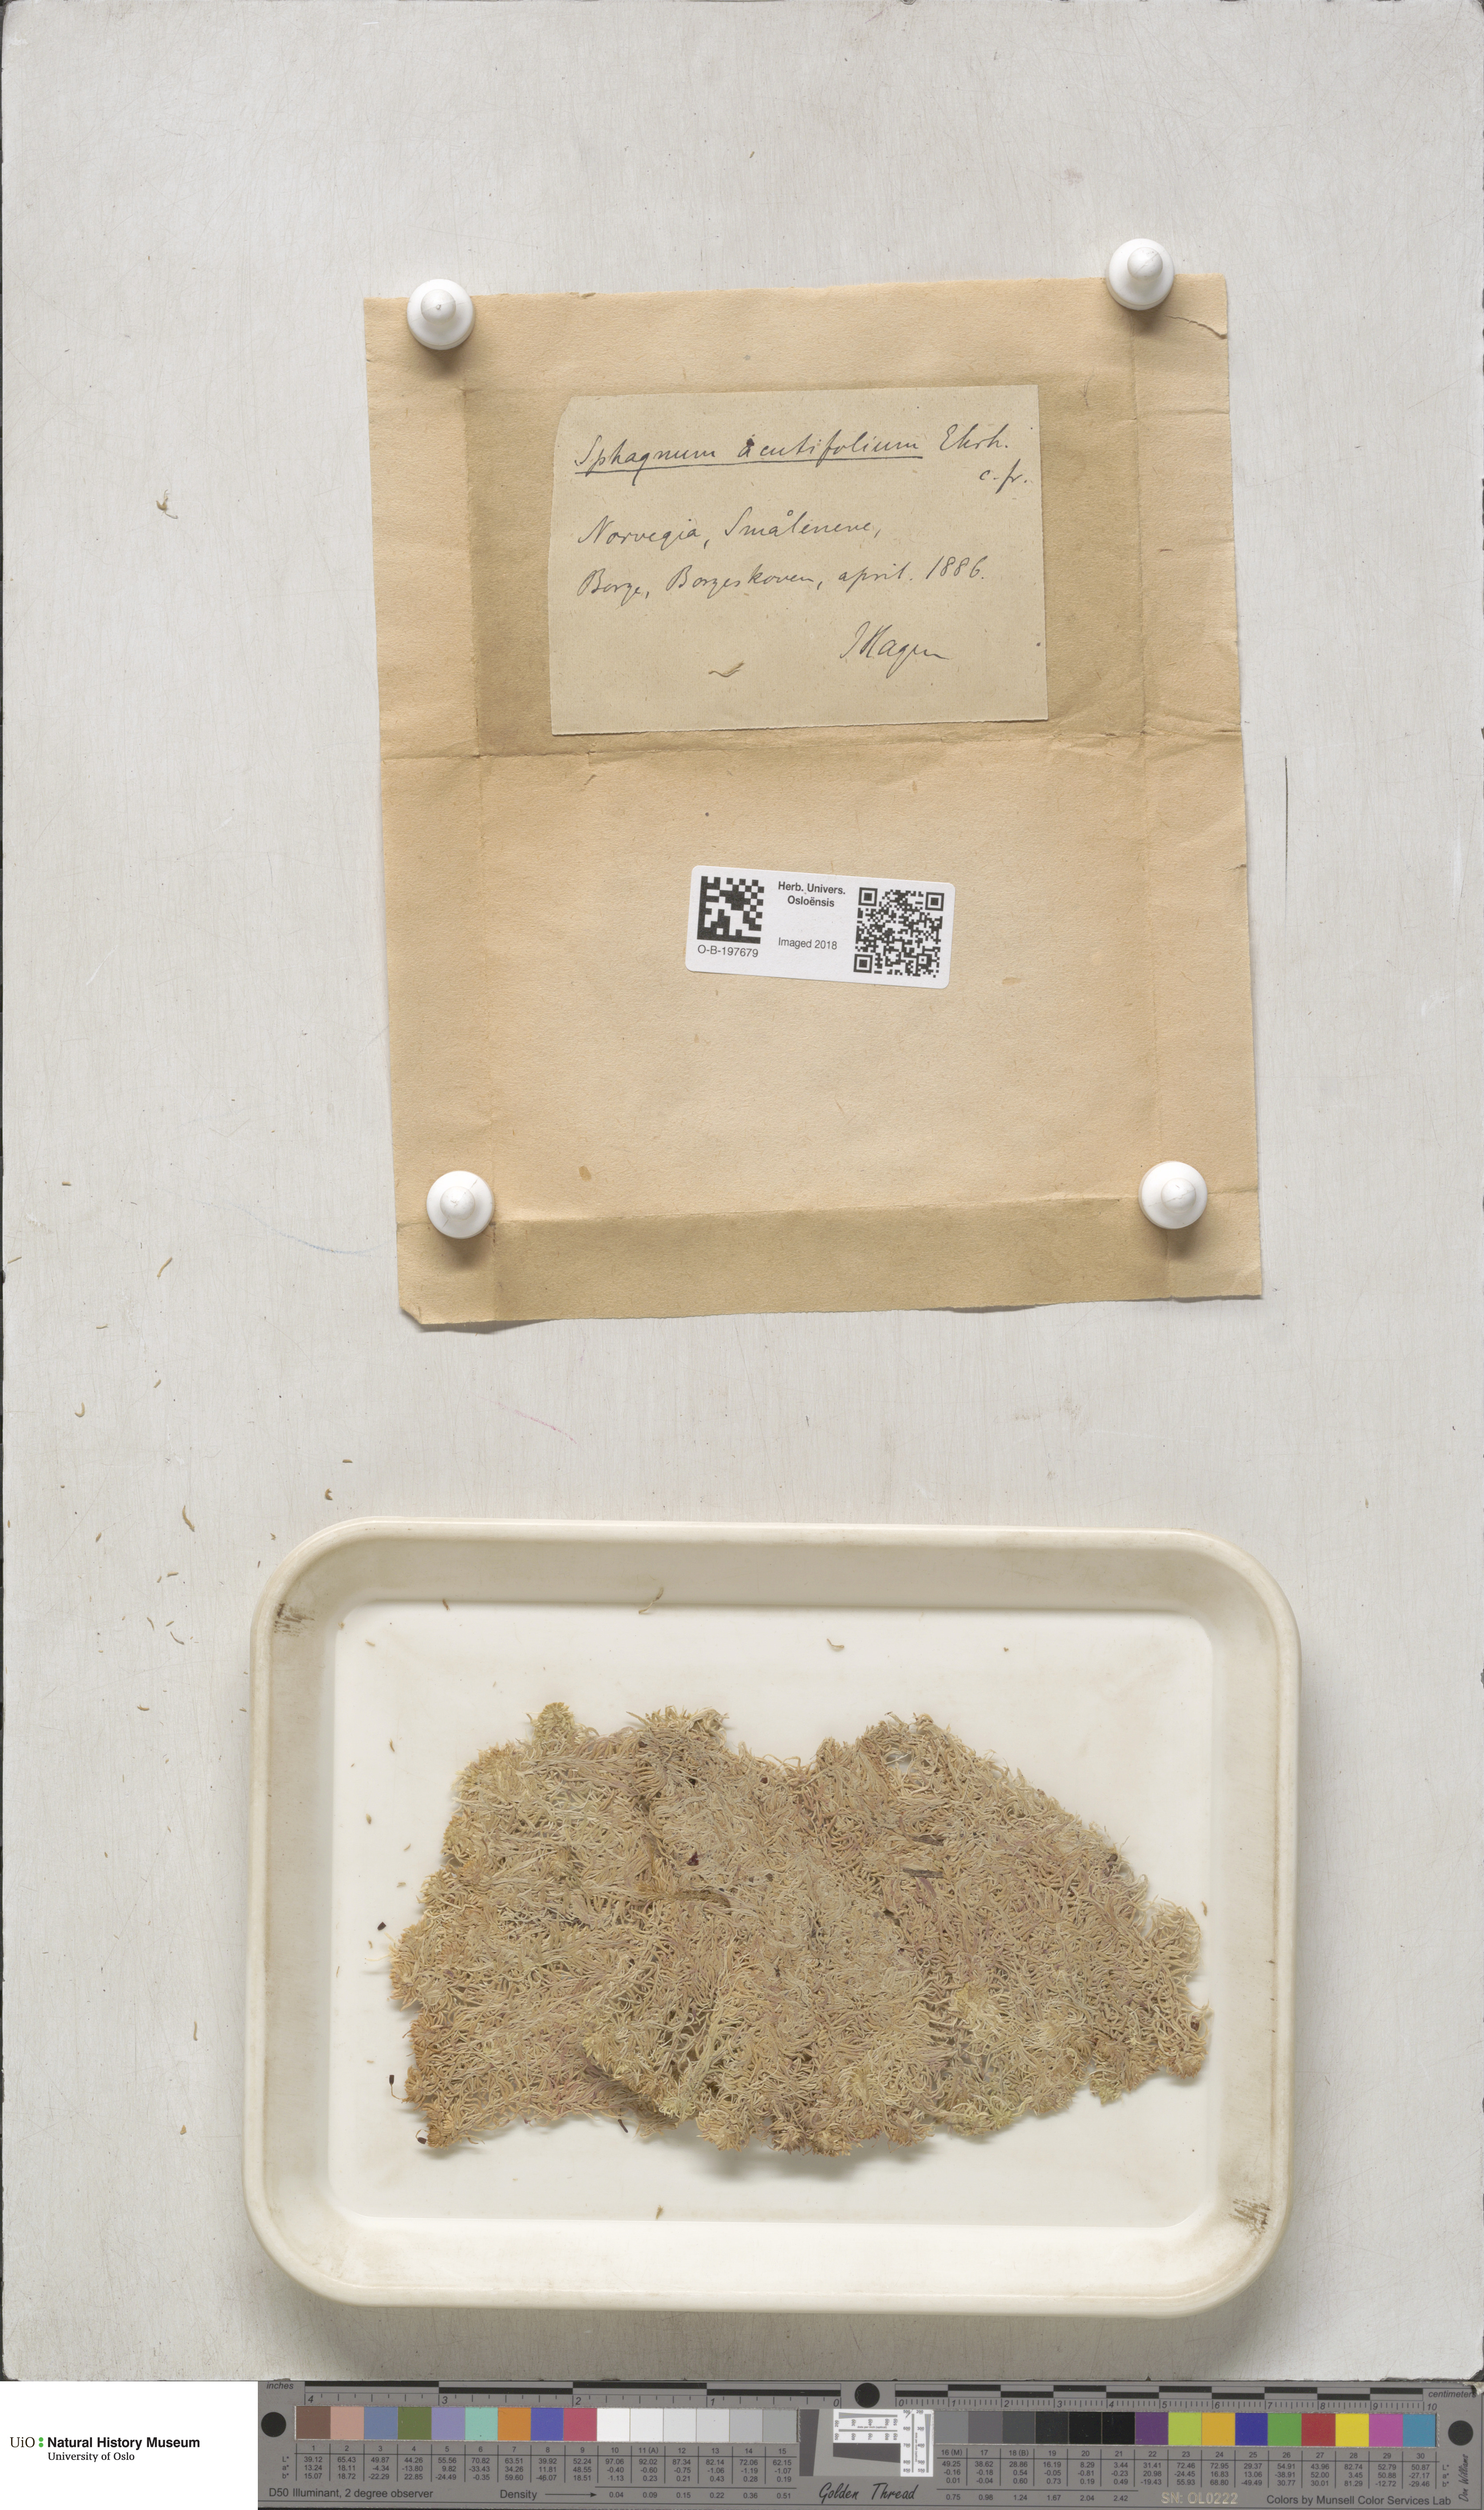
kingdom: Plantae
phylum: Bryophyta
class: Sphagnopsida
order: Sphagnales
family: Sphagnaceae
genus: Sphagnum
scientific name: Sphagnum capillifolium
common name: Small red peat moss
